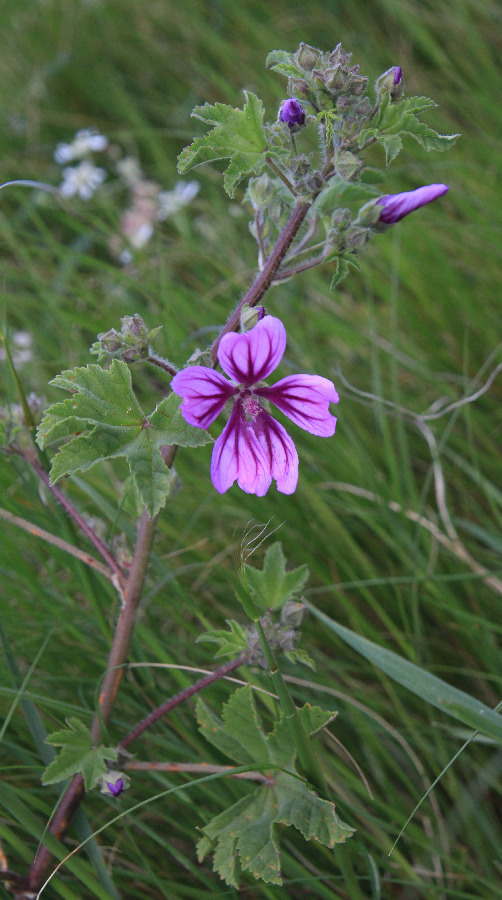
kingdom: Plantae
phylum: Tracheophyta
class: Magnoliopsida
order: Malvales
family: Malvaceae
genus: Malva
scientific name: Malva sylvestris
